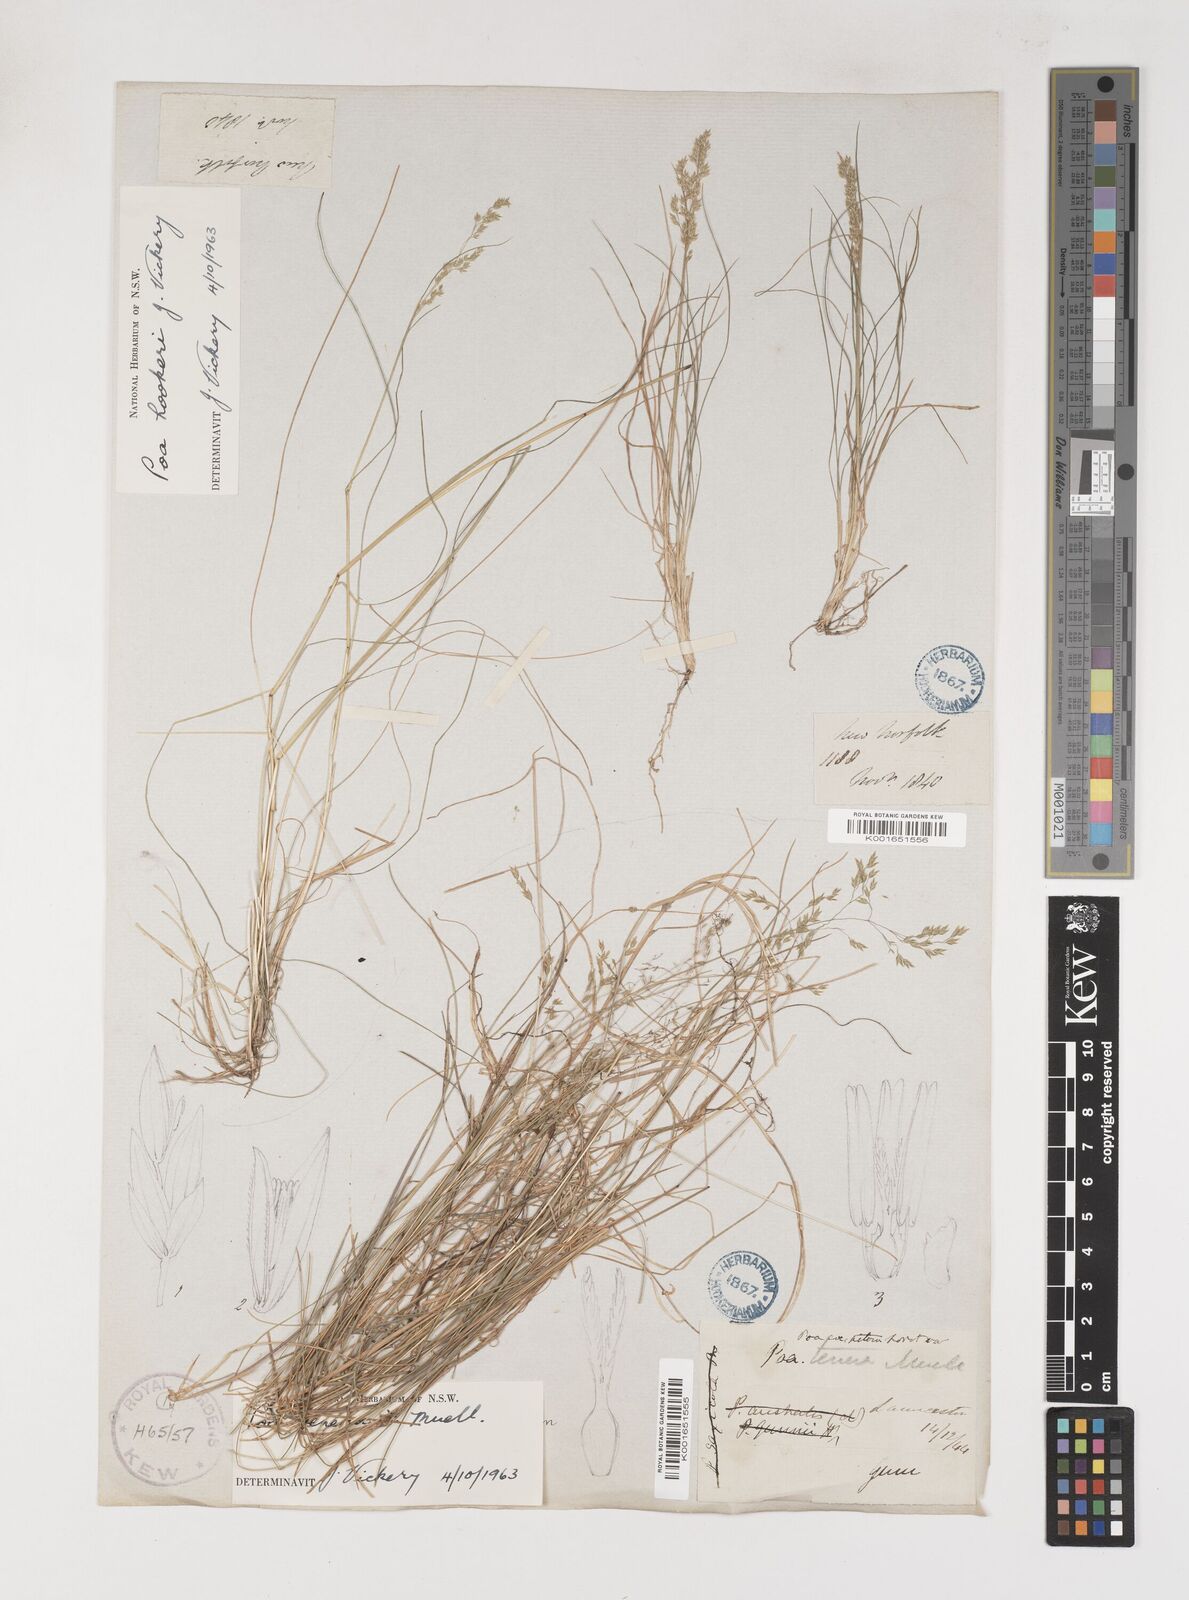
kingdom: Plantae
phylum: Tracheophyta
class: Liliopsida
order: Poales
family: Poaceae
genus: Poa
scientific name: Poa tenera
